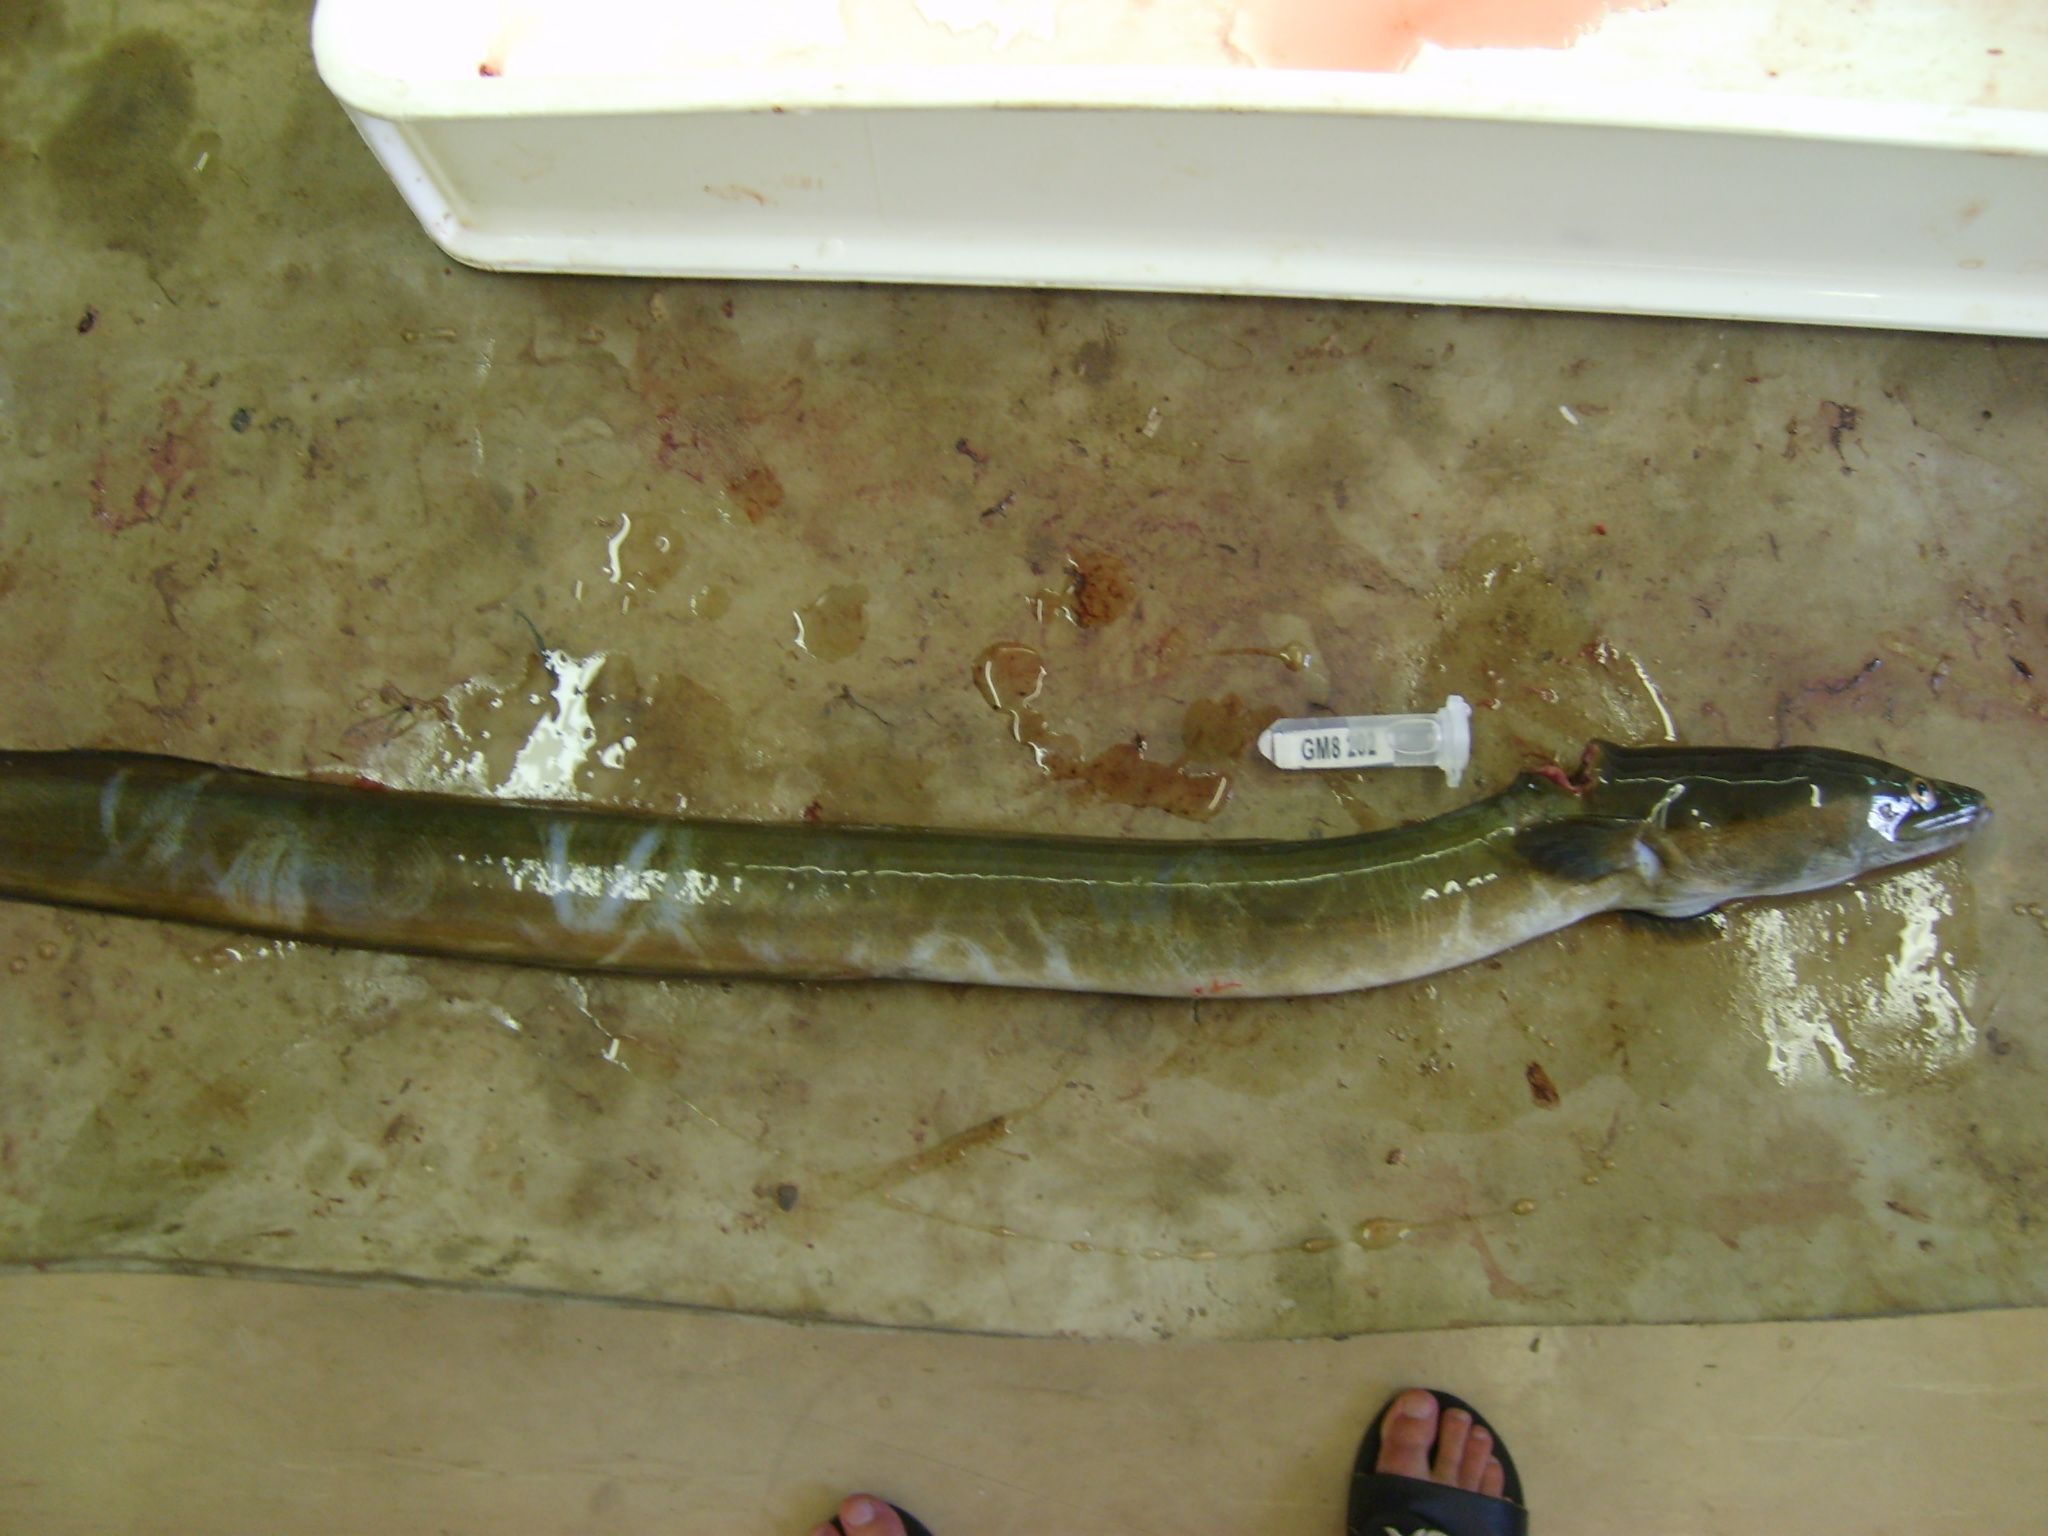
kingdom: Animalia
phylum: Chordata
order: Anguilliformes
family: Anguillidae
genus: Anguilla
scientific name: Anguilla mossambica
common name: African longfin eel
